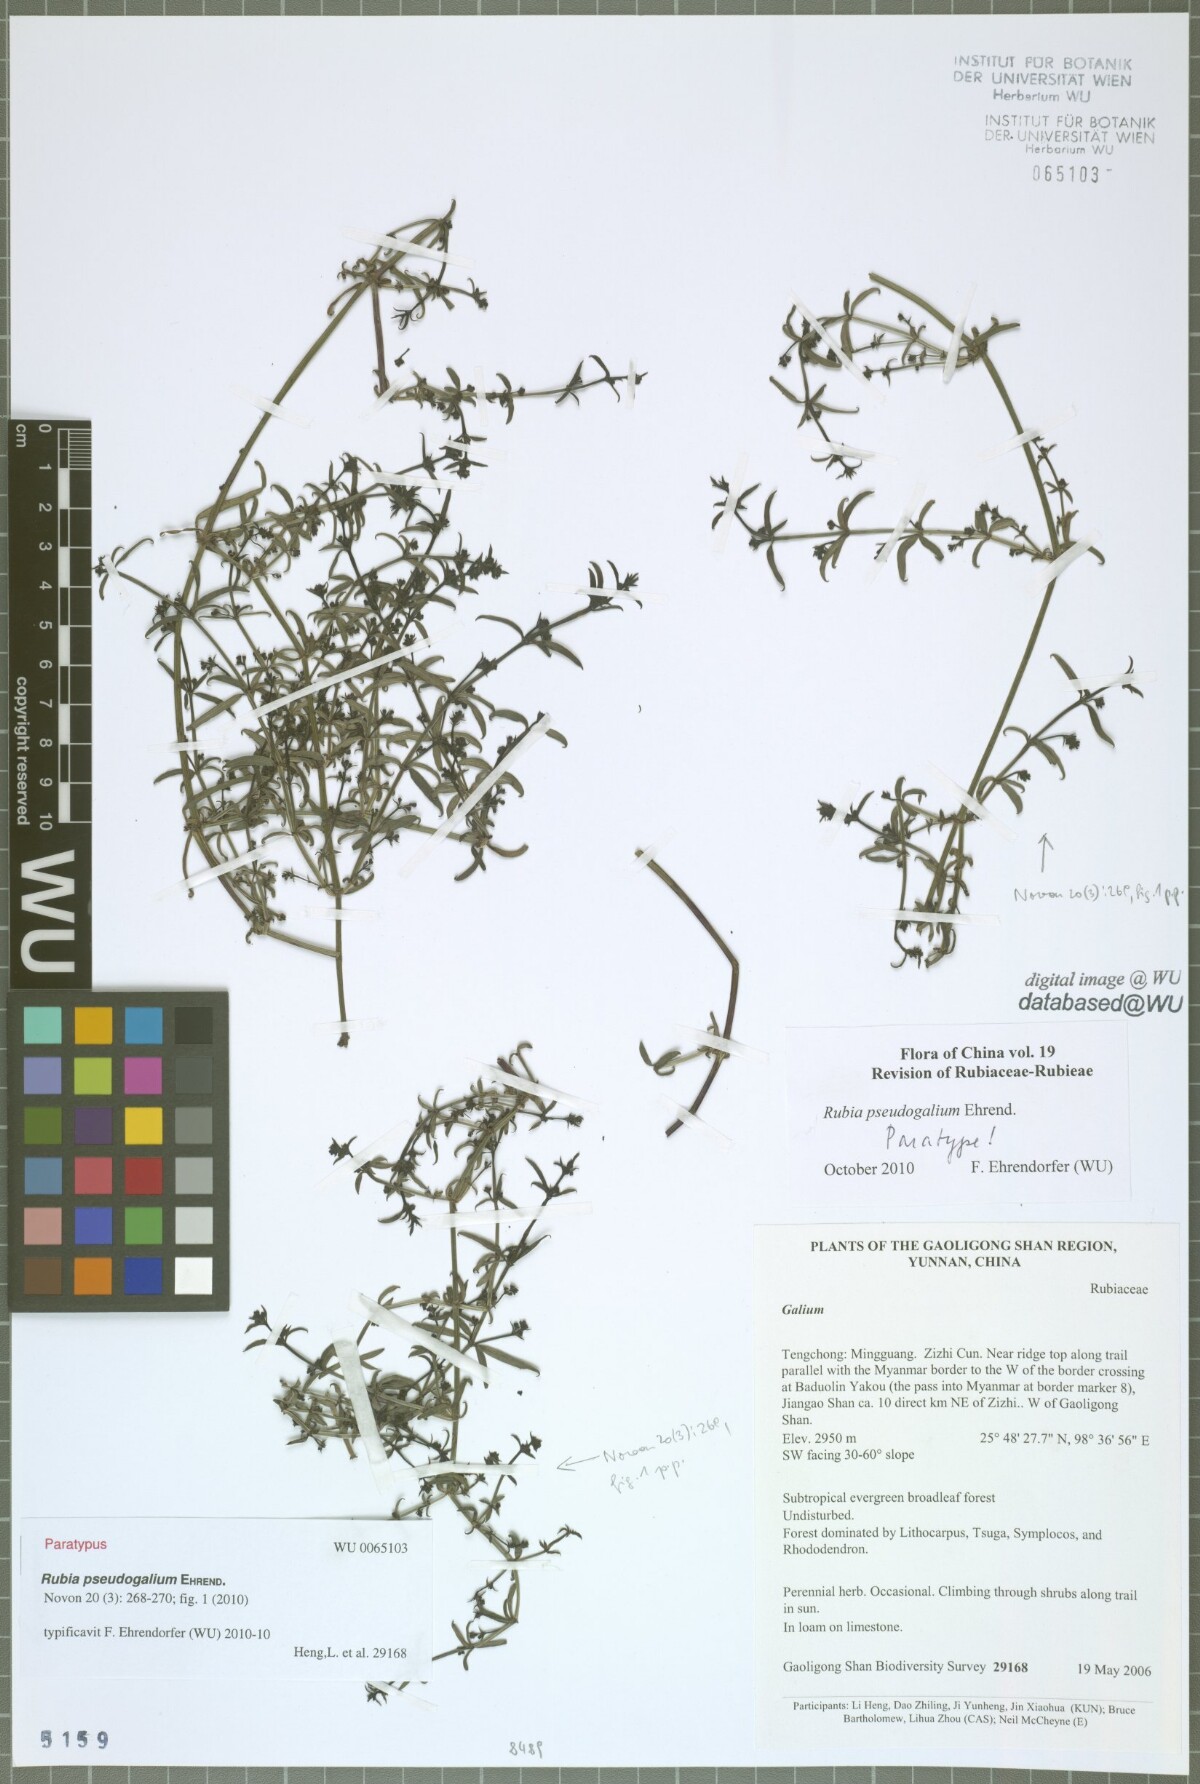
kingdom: Plantae
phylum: Tracheophyta
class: Magnoliopsida
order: Gentianales
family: Rubiaceae
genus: Rubia
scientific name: Rubia pseudogalium
